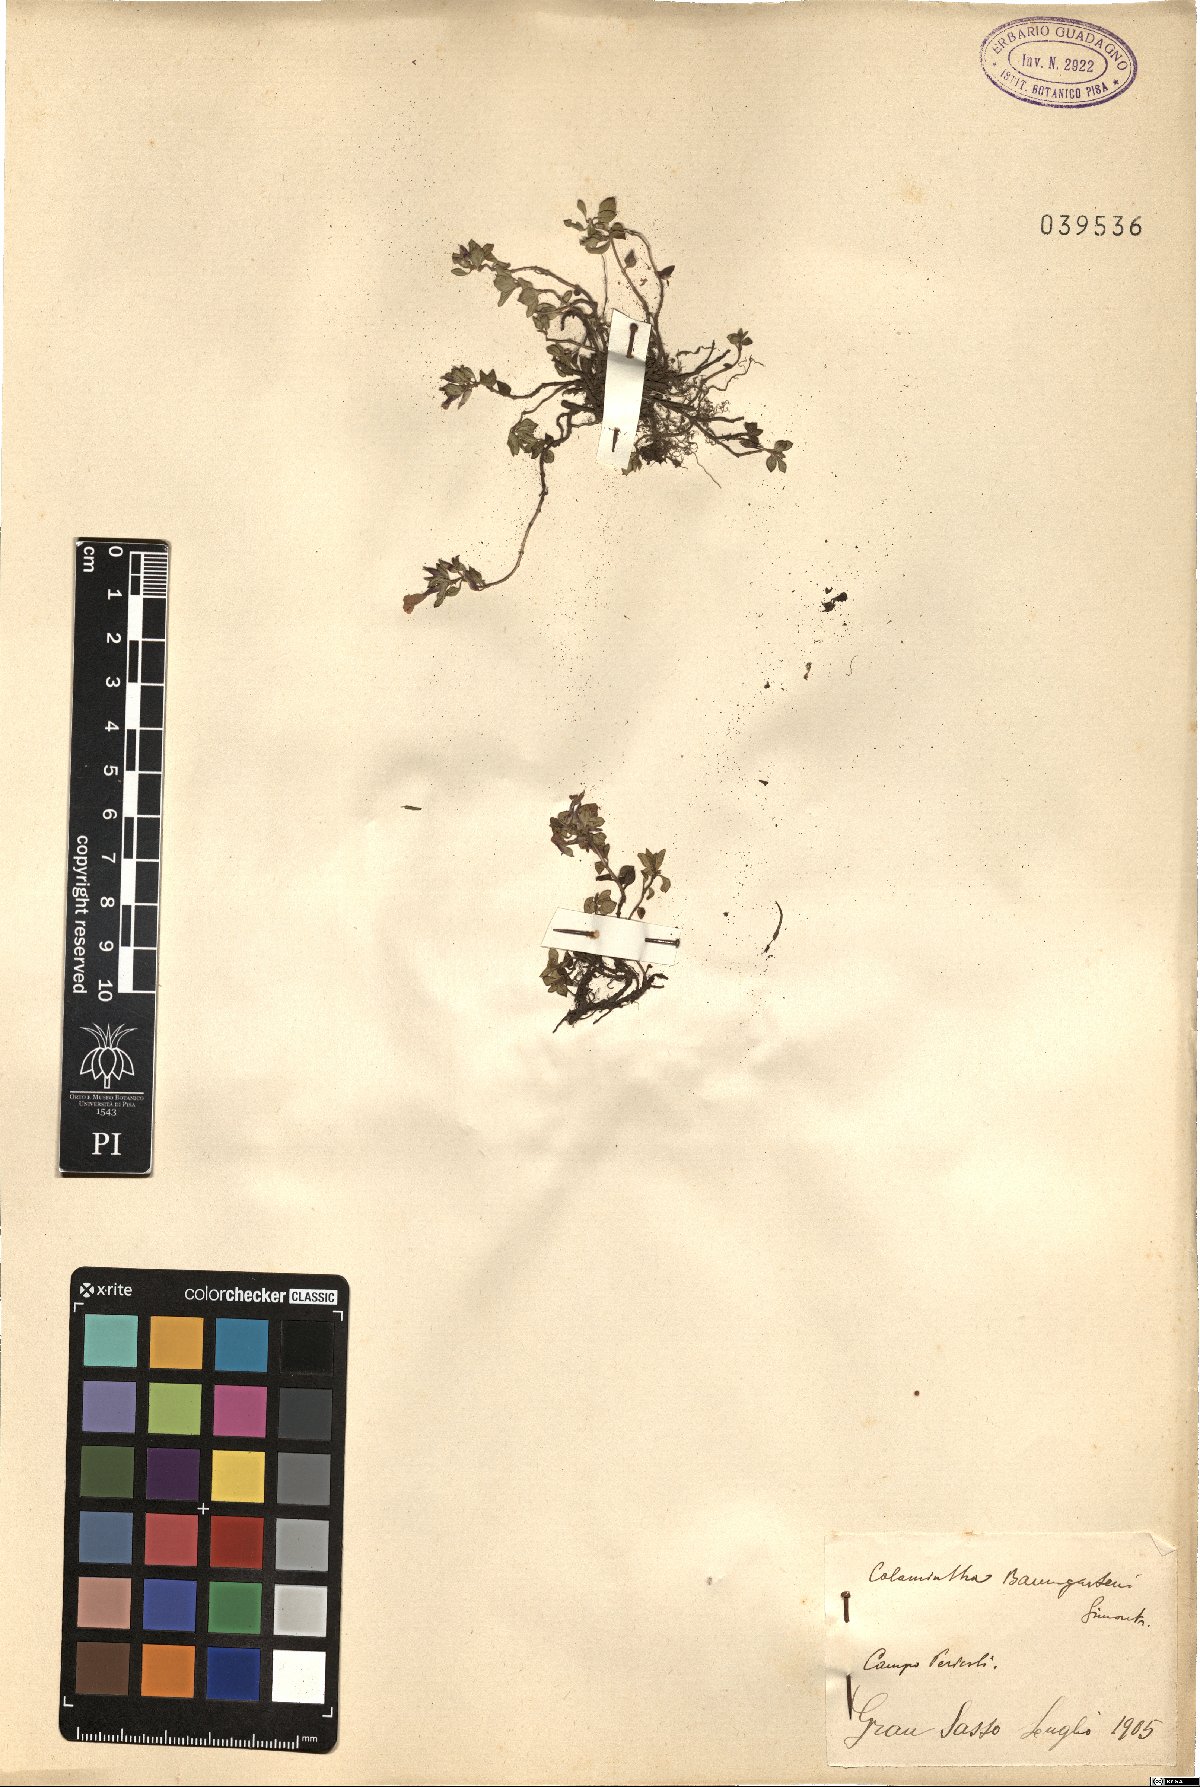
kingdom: Plantae
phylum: Tracheophyta
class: Magnoliopsida
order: Lamiales
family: Lamiaceae
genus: Clinopodium
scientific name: Clinopodium alpinum
